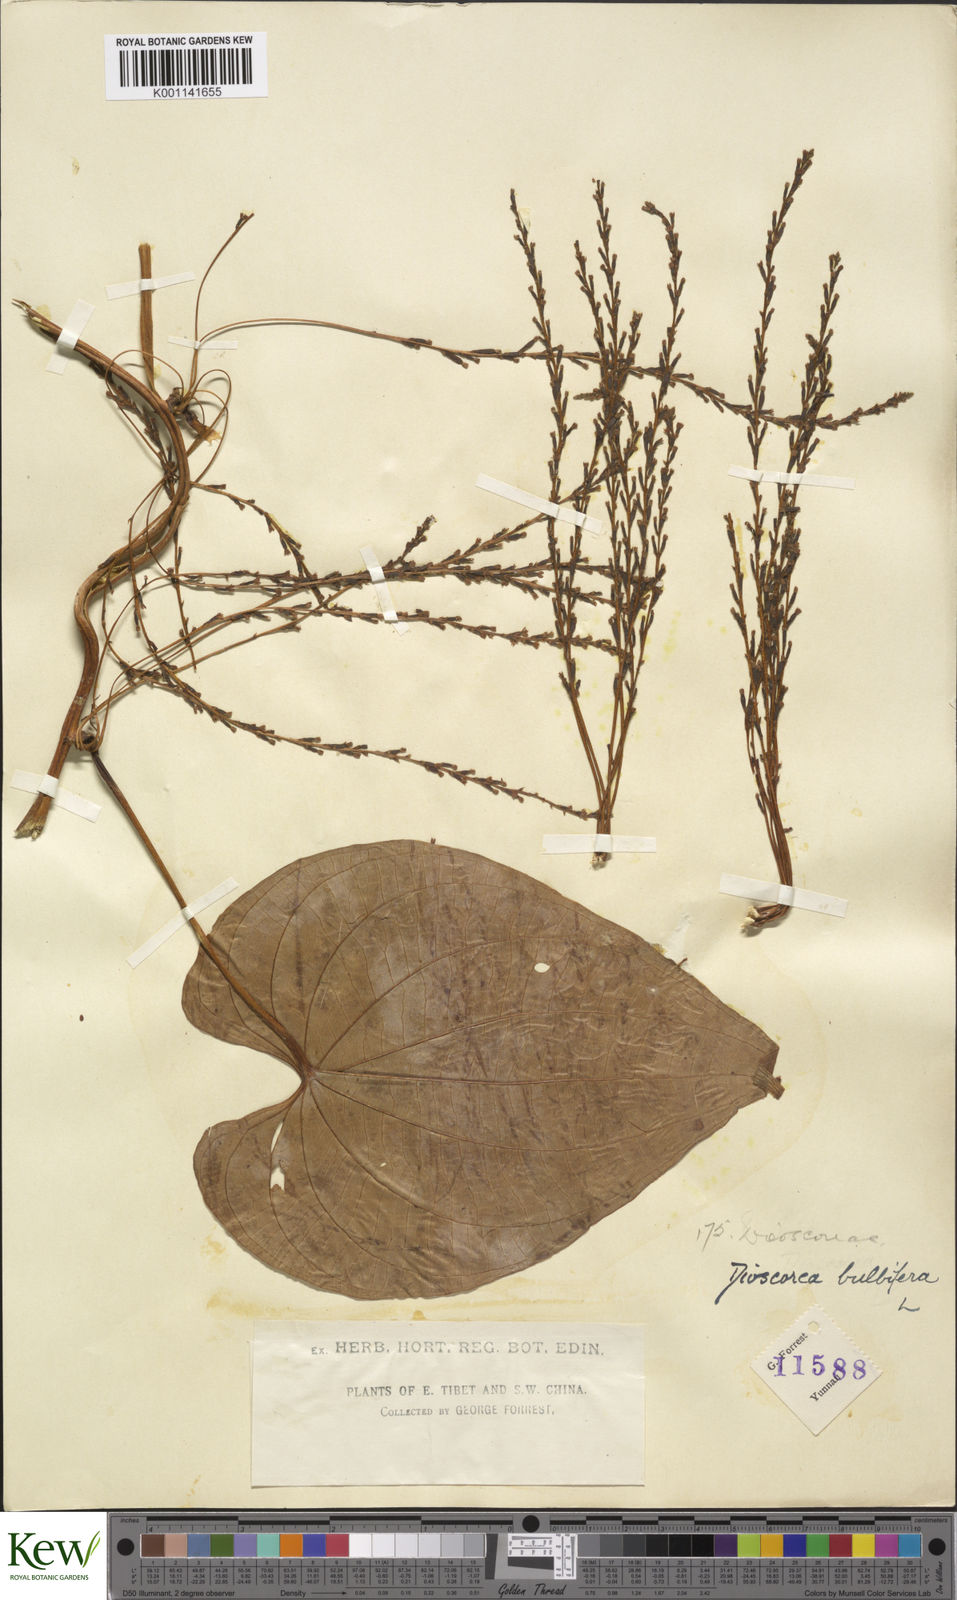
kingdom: Plantae
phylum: Tracheophyta
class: Liliopsida
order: Dioscoreales
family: Dioscoreaceae
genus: Dioscorea
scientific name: Dioscorea bulbifera
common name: Air yam
